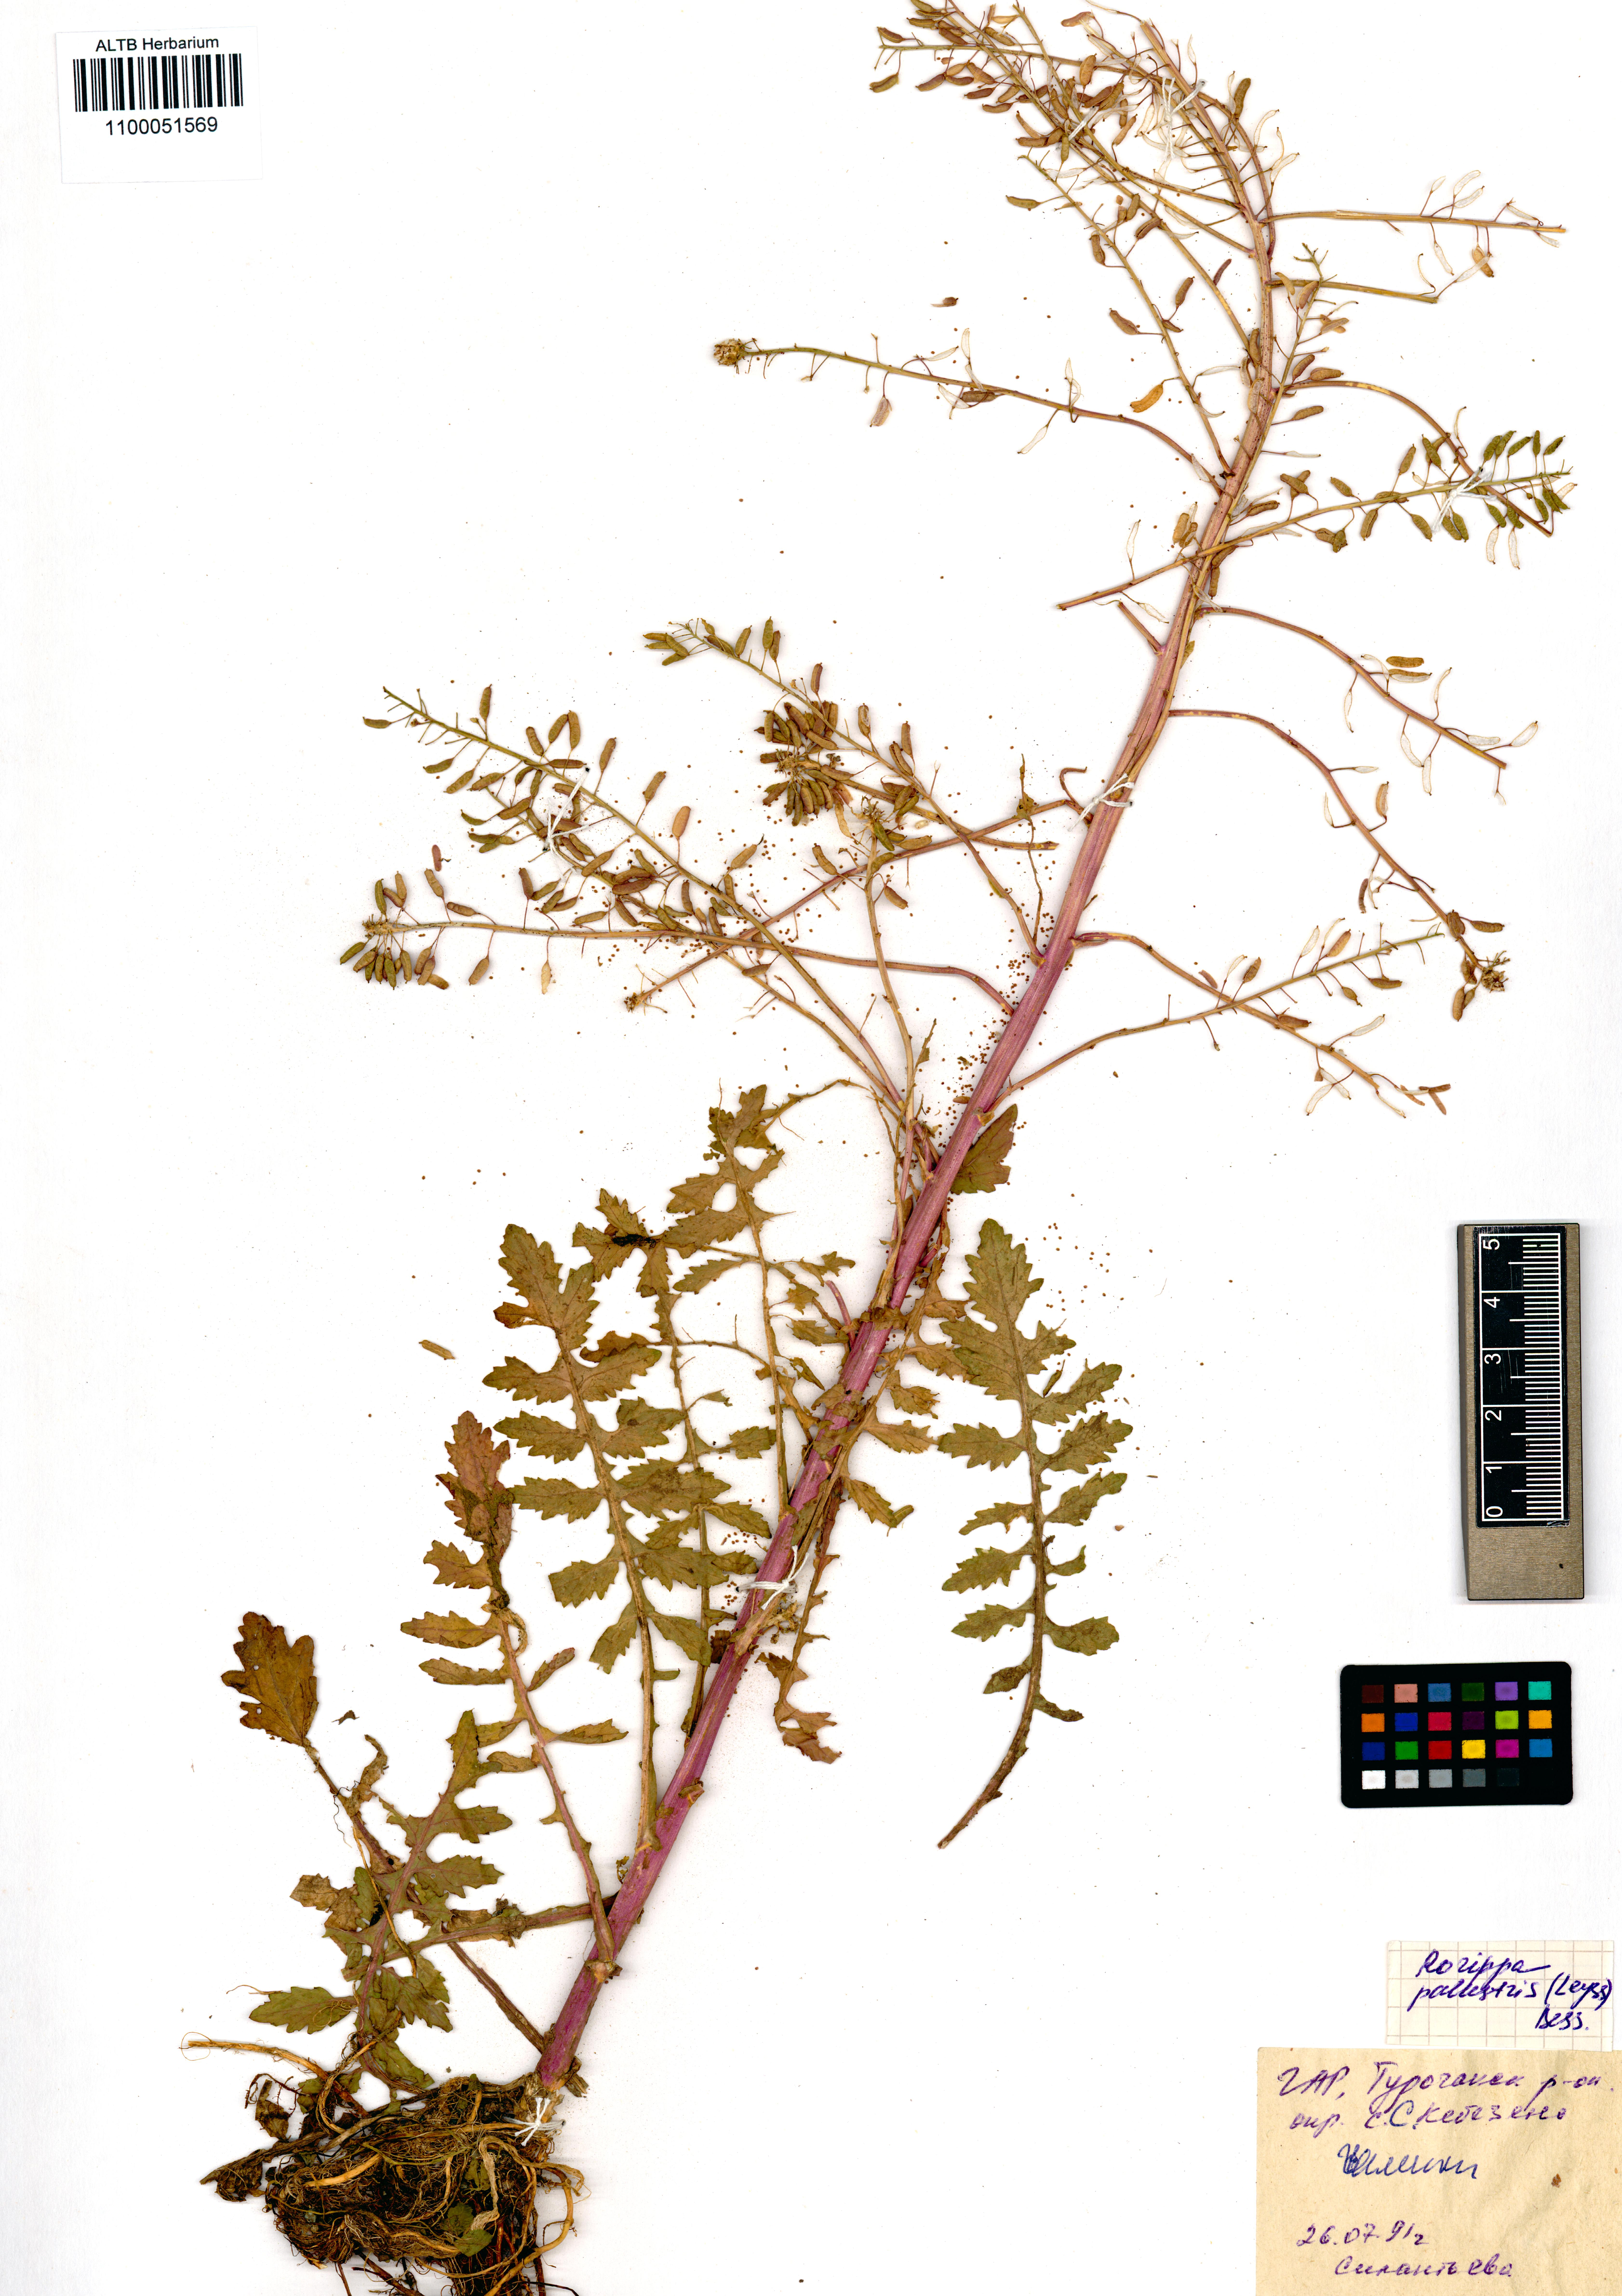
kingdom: Plantae
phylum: Tracheophyta
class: Magnoliopsida
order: Brassicales
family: Brassicaceae
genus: Rorippa
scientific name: Rorippa palustris
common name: Marsh yellow-cress
